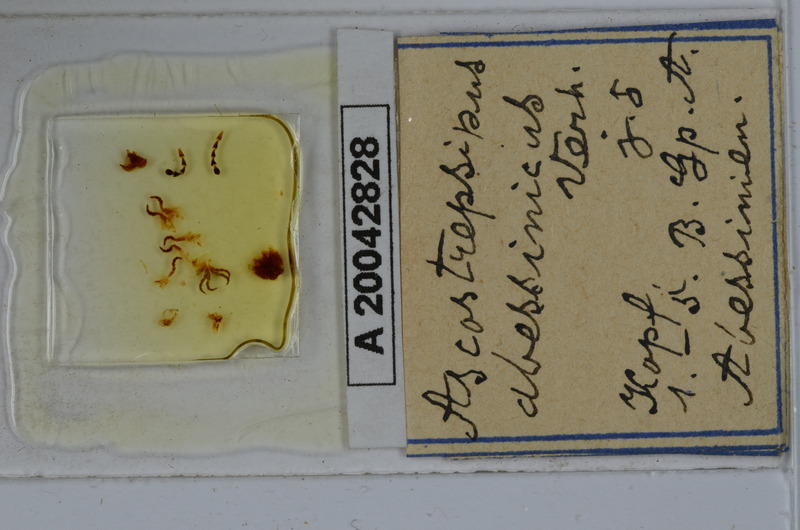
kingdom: Animalia
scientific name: Animalia
